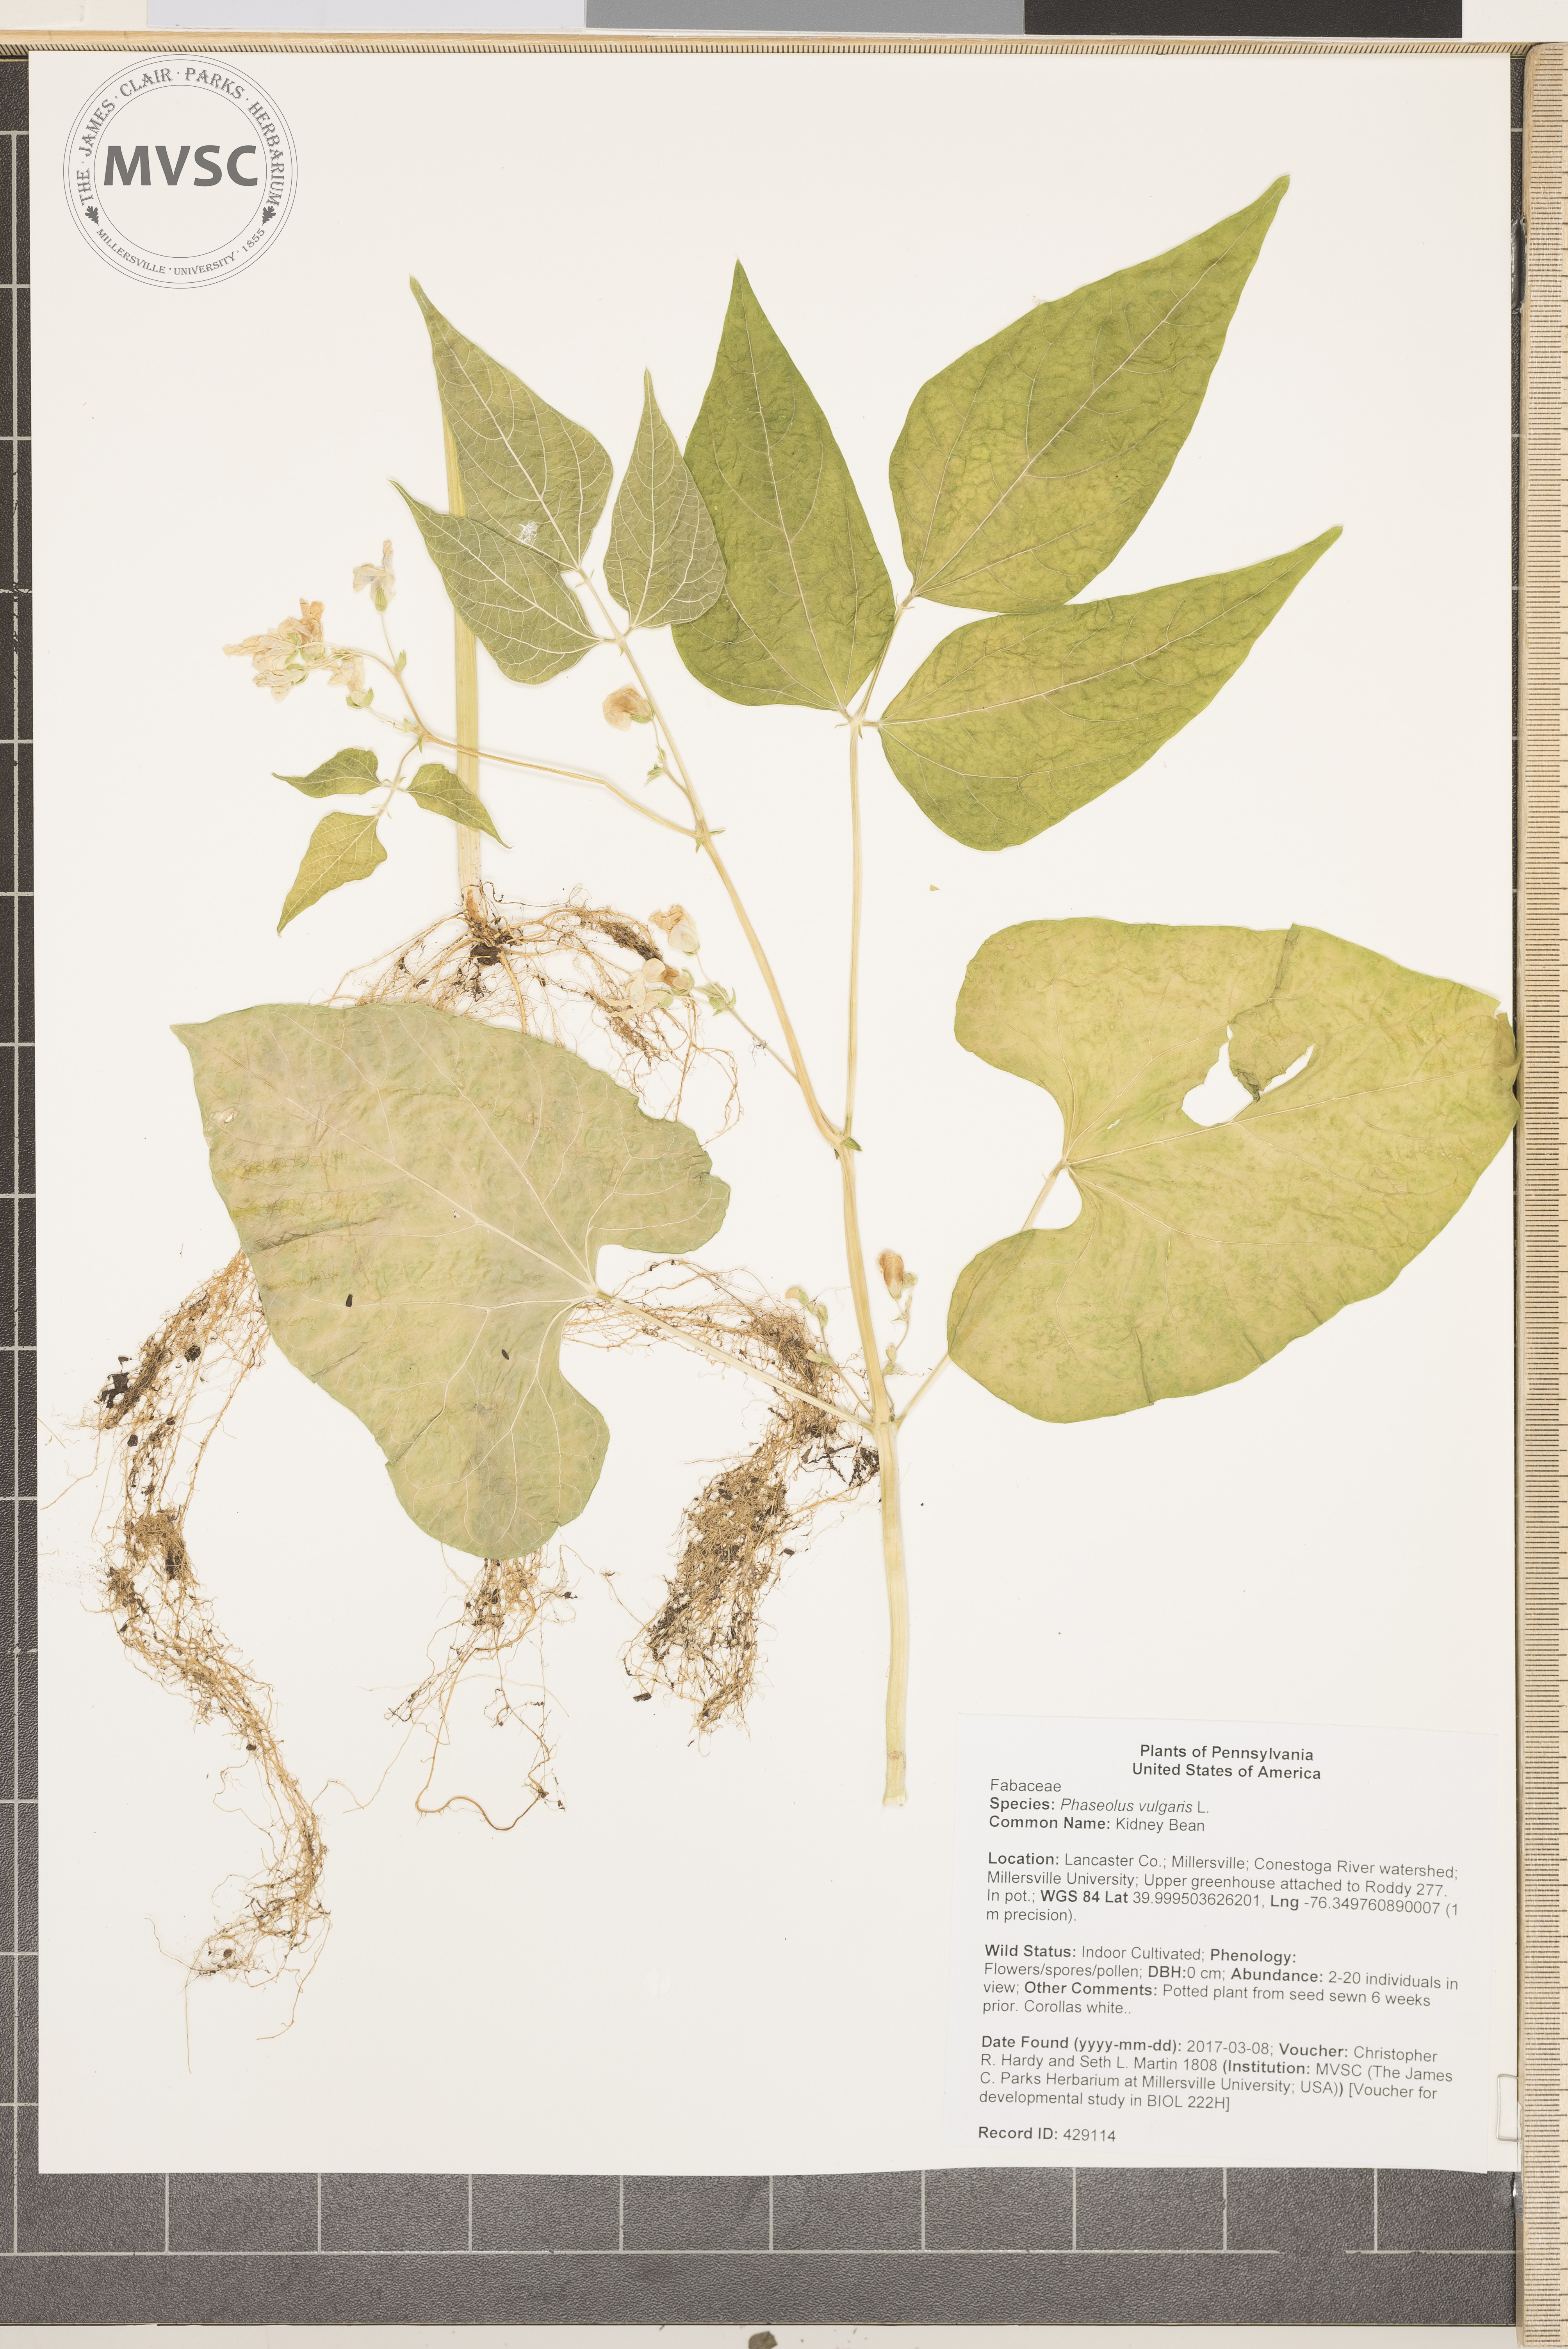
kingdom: Plantae
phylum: Tracheophyta
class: Magnoliopsida
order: Fabales
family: Fabaceae
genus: Phaseolus
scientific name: Phaseolus vulgaris
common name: Kidney Bean
